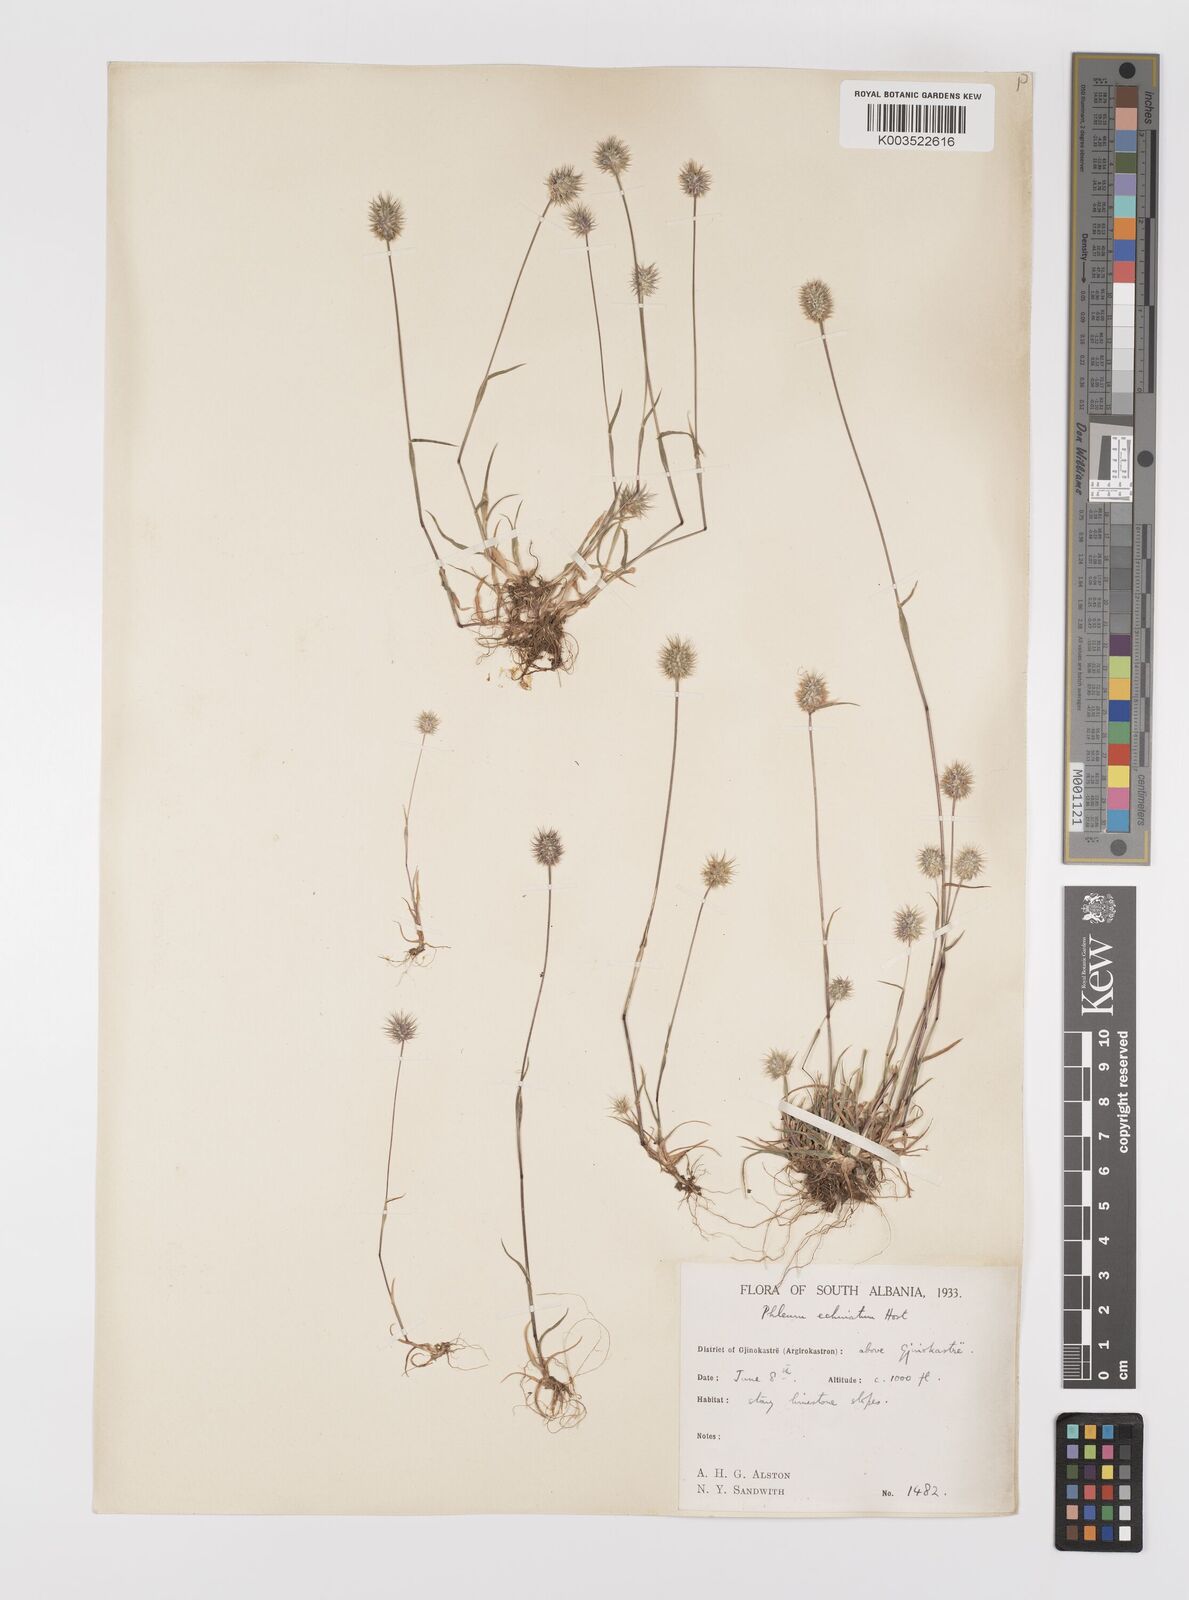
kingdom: Plantae
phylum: Tracheophyta
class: Liliopsida
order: Poales
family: Poaceae
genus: Phleum
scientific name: Phleum echinatum
